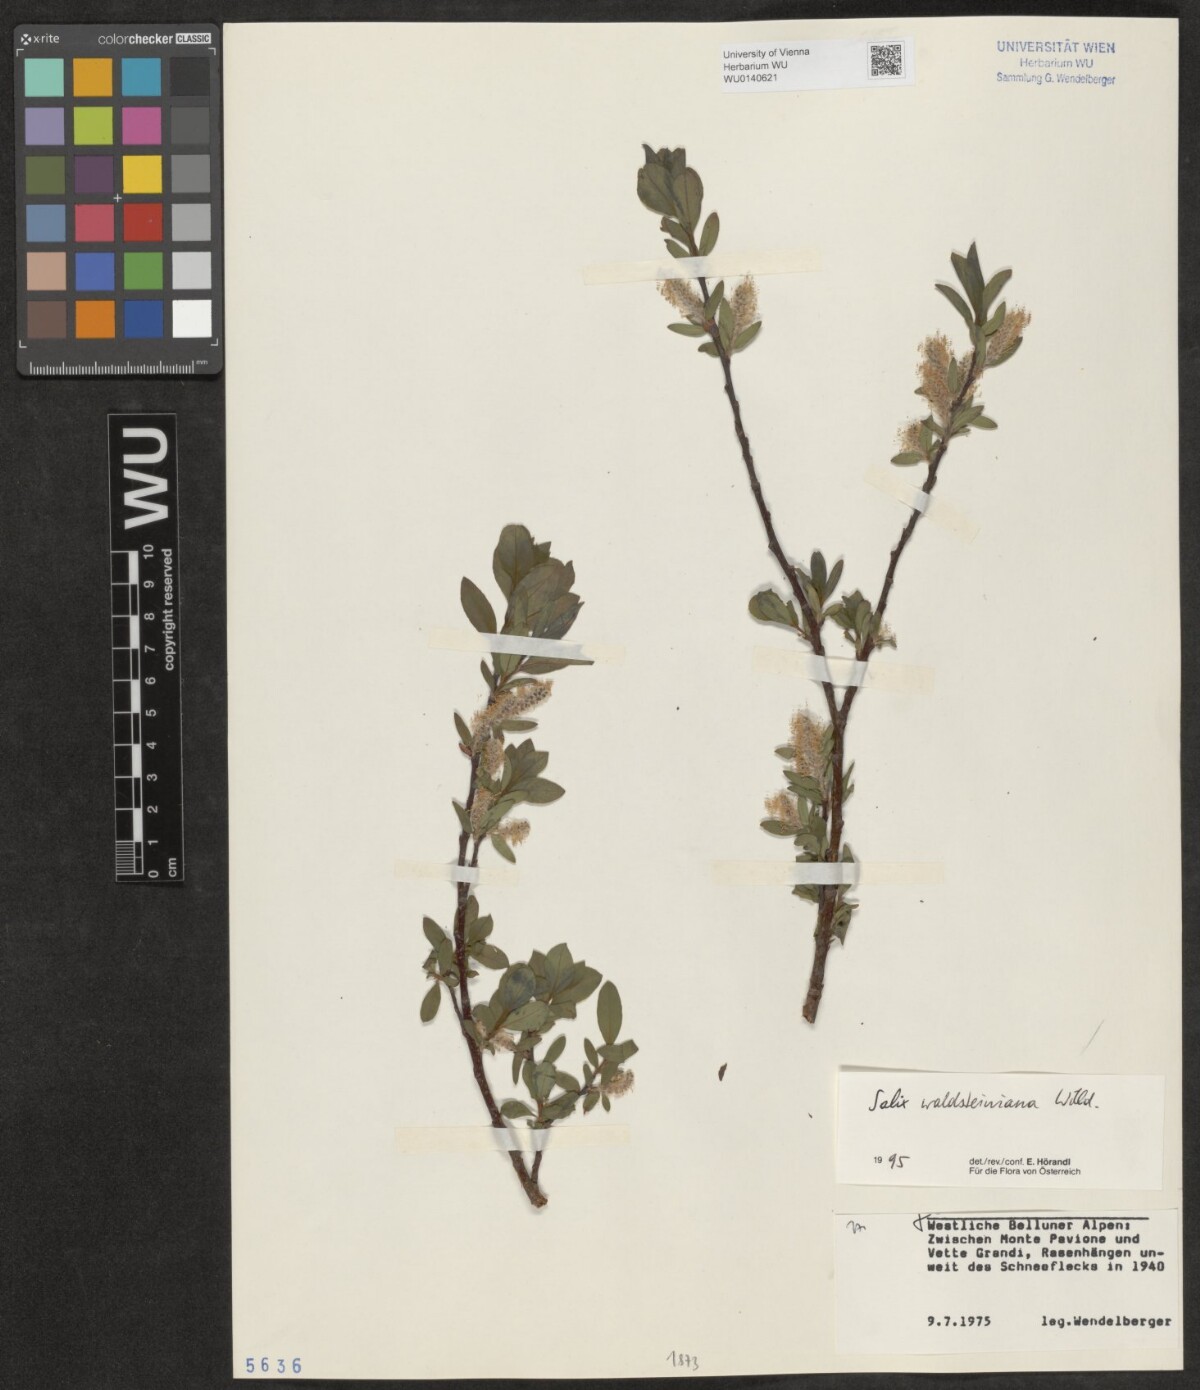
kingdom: Plantae
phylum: Tracheophyta
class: Magnoliopsida
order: Malpighiales
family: Salicaceae
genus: Salix
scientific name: Salix waldsteiniana
